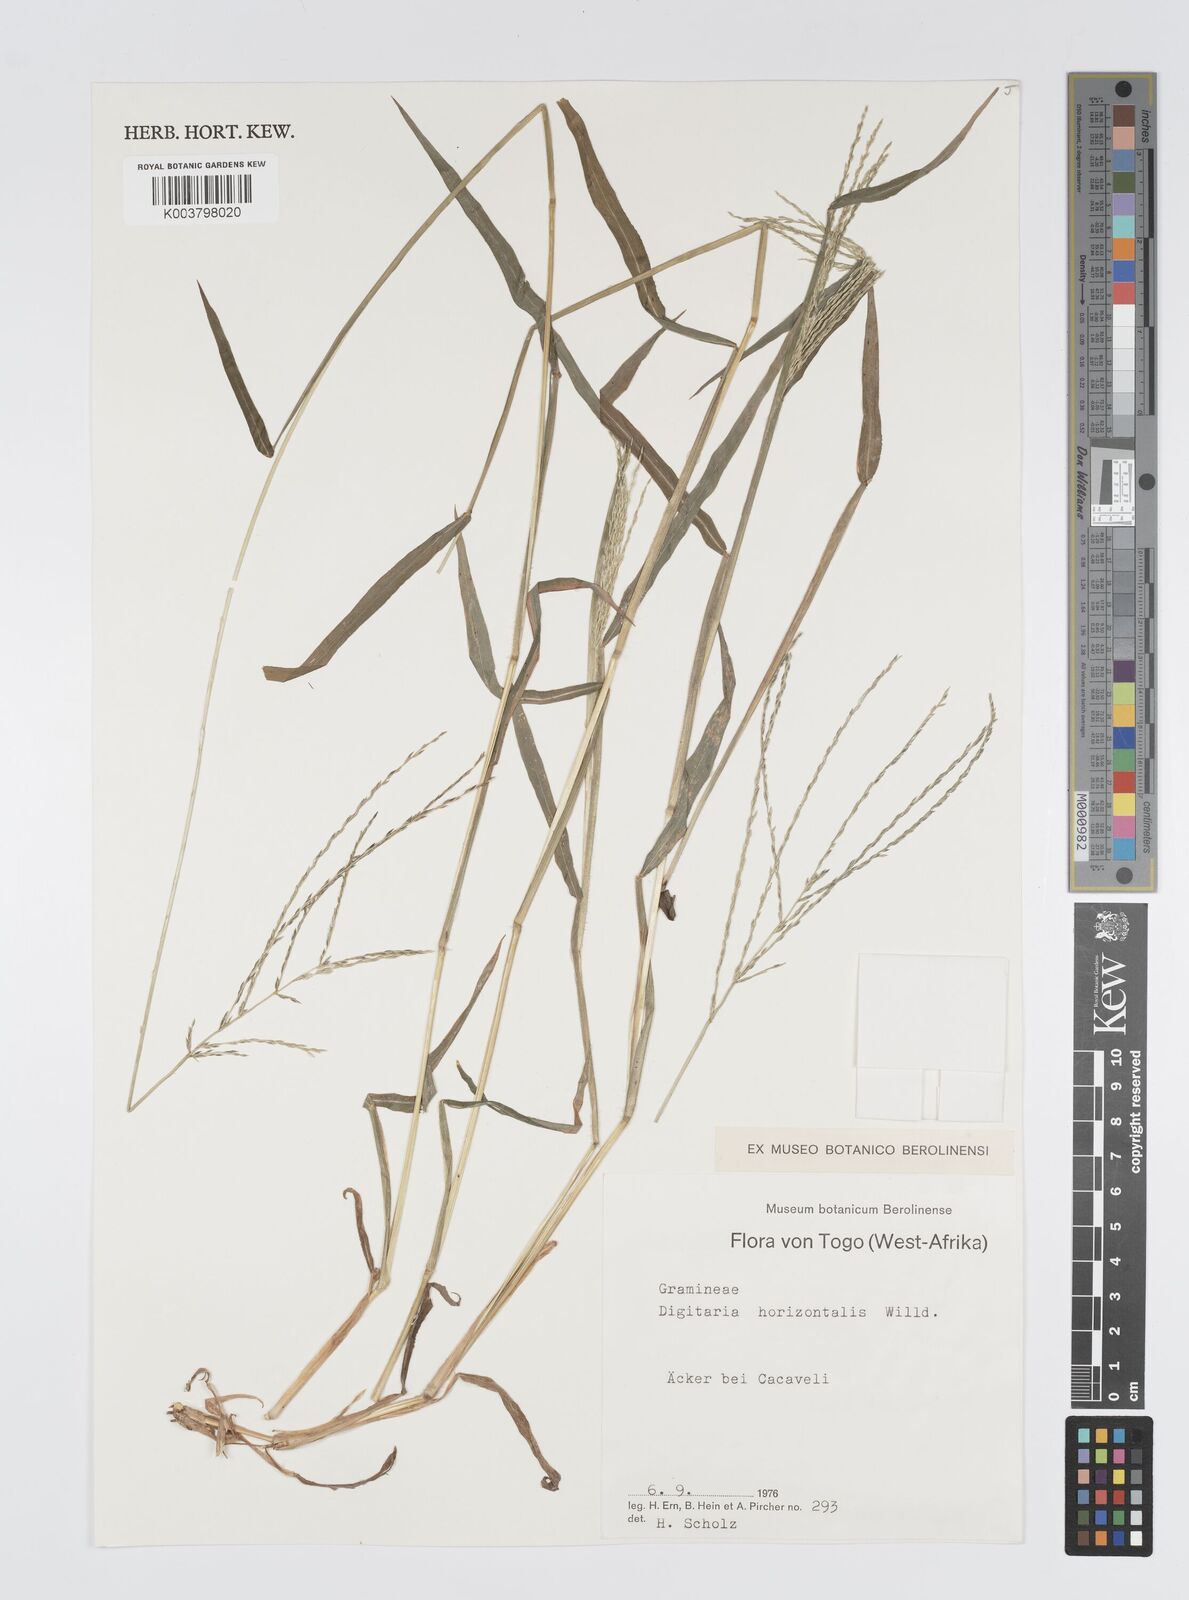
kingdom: Plantae
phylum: Tracheophyta
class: Liliopsida
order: Poales
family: Poaceae
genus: Digitaria
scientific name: Digitaria horizontalis
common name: Jamaican crabgrass
